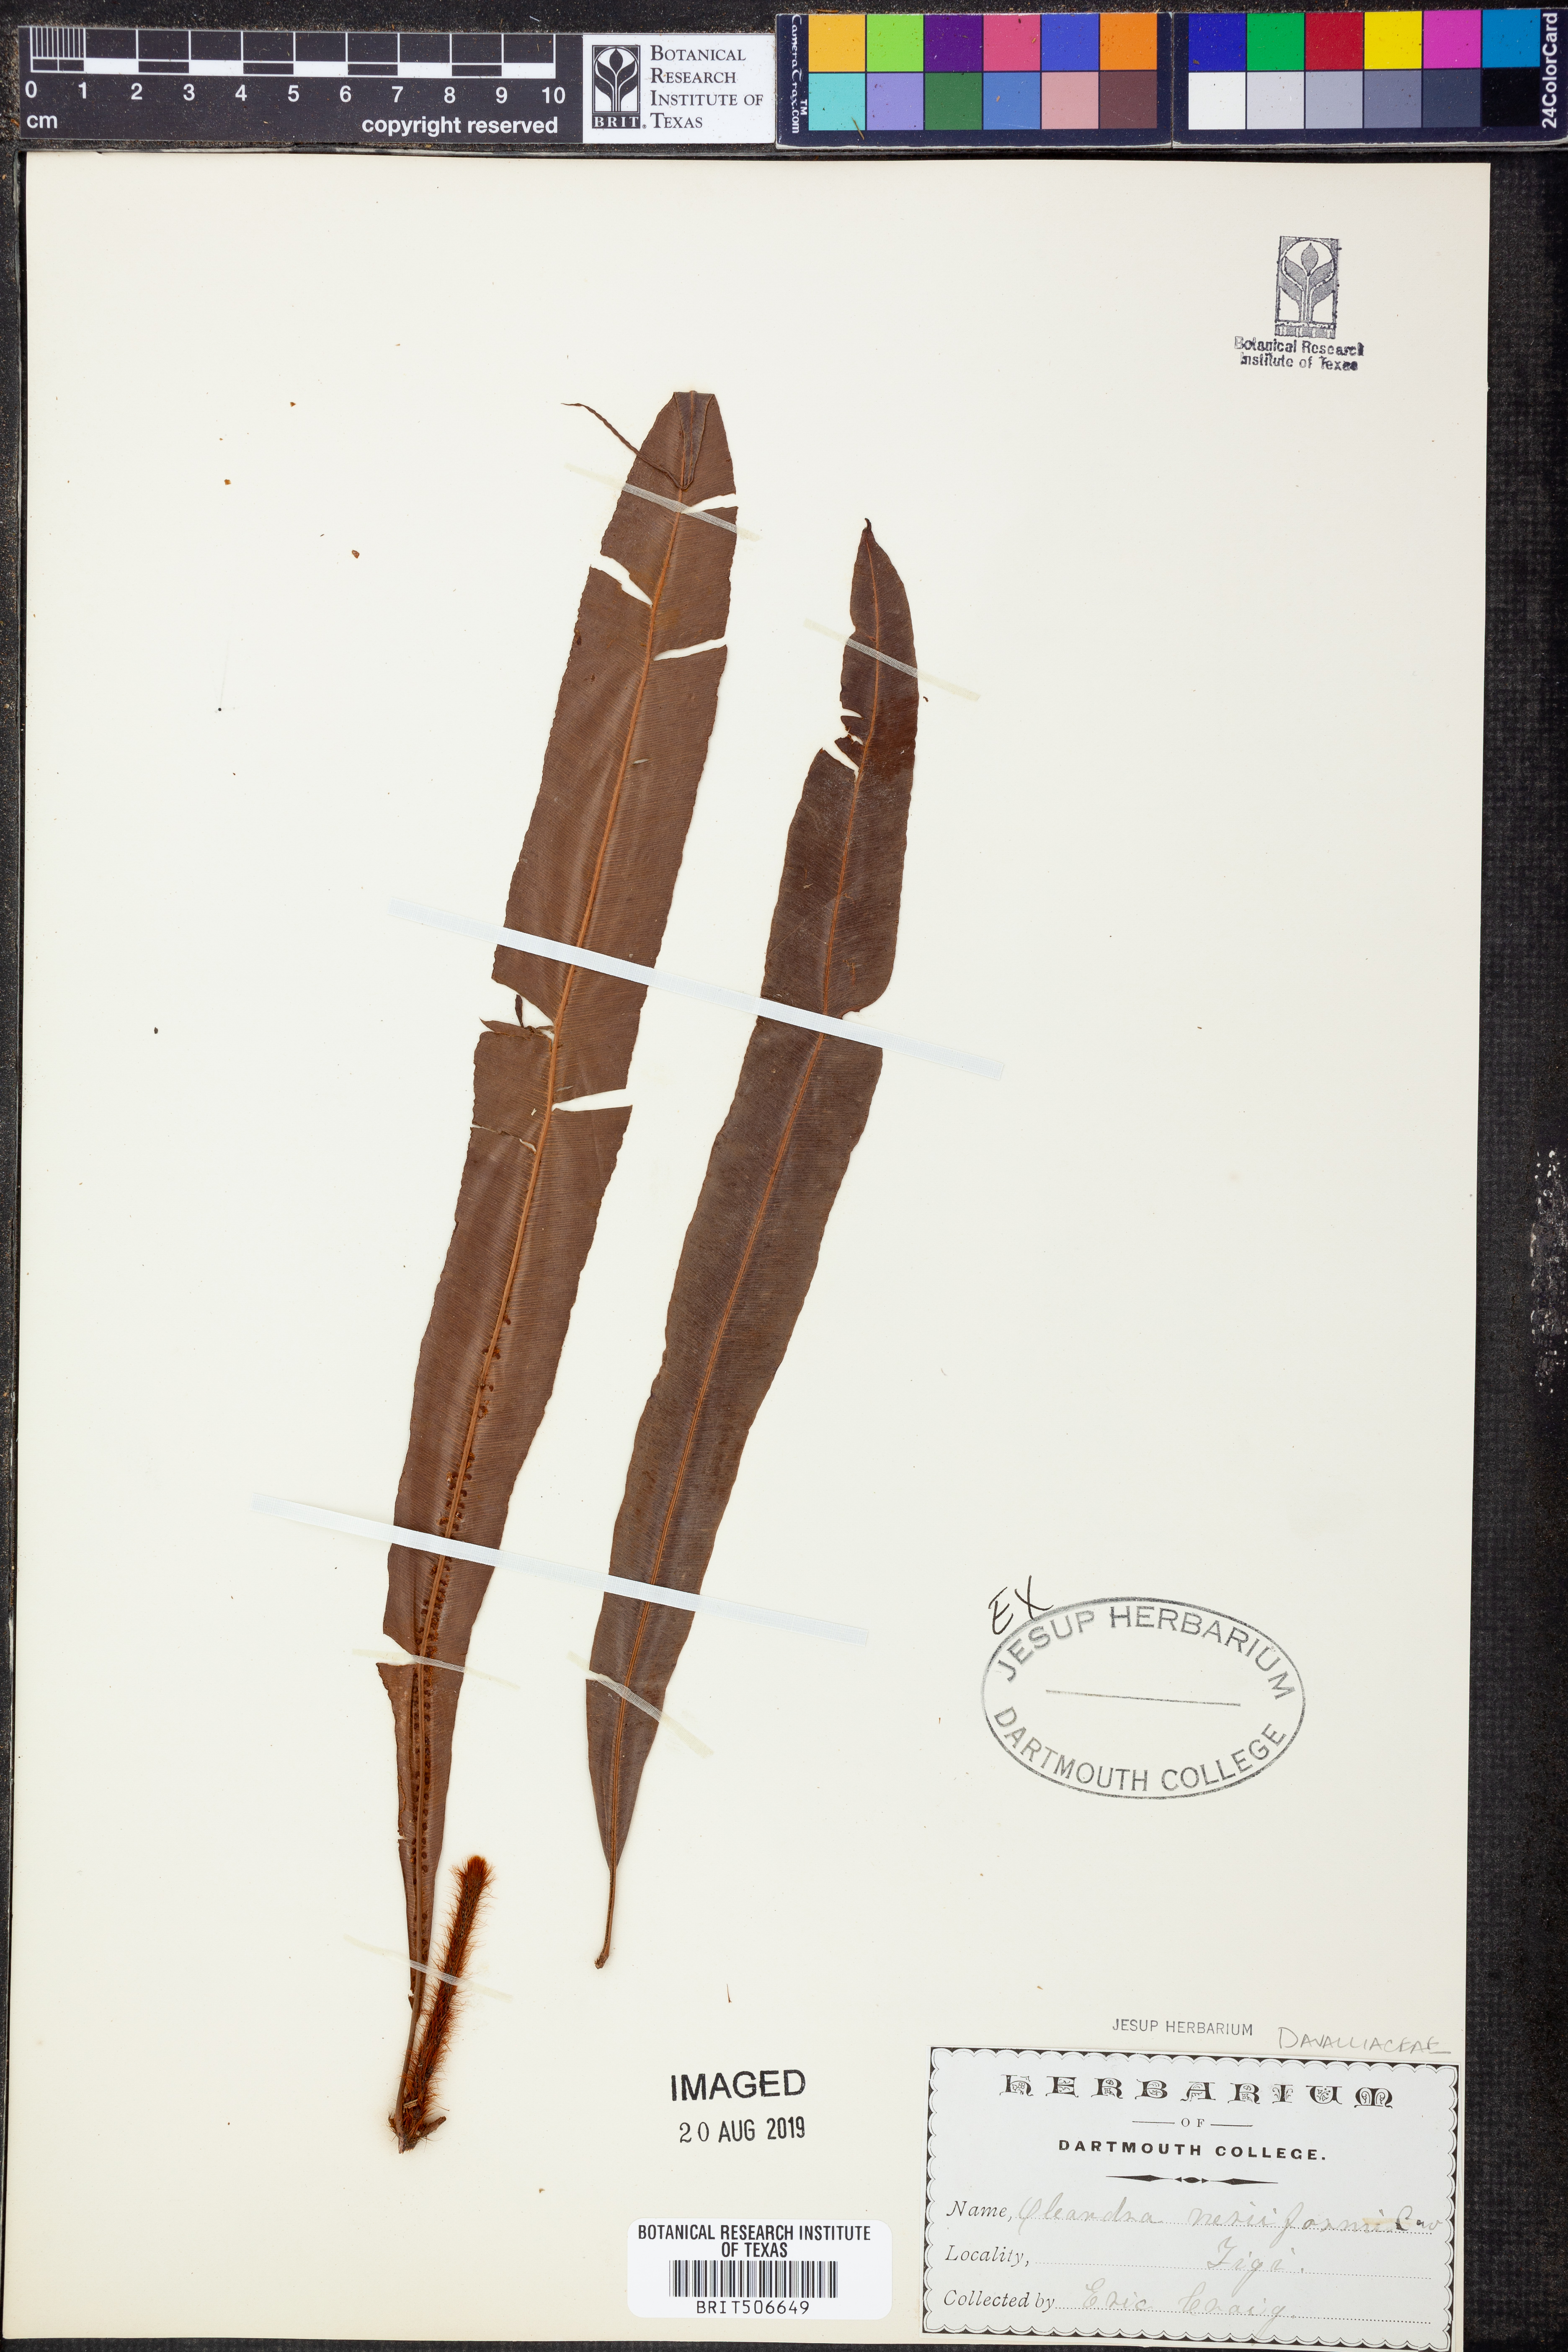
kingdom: Plantae
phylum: Tracheophyta
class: Polypodiopsida
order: Polypodiales
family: Oleandraceae
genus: Oleandra
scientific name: Oleandra neriiformis
